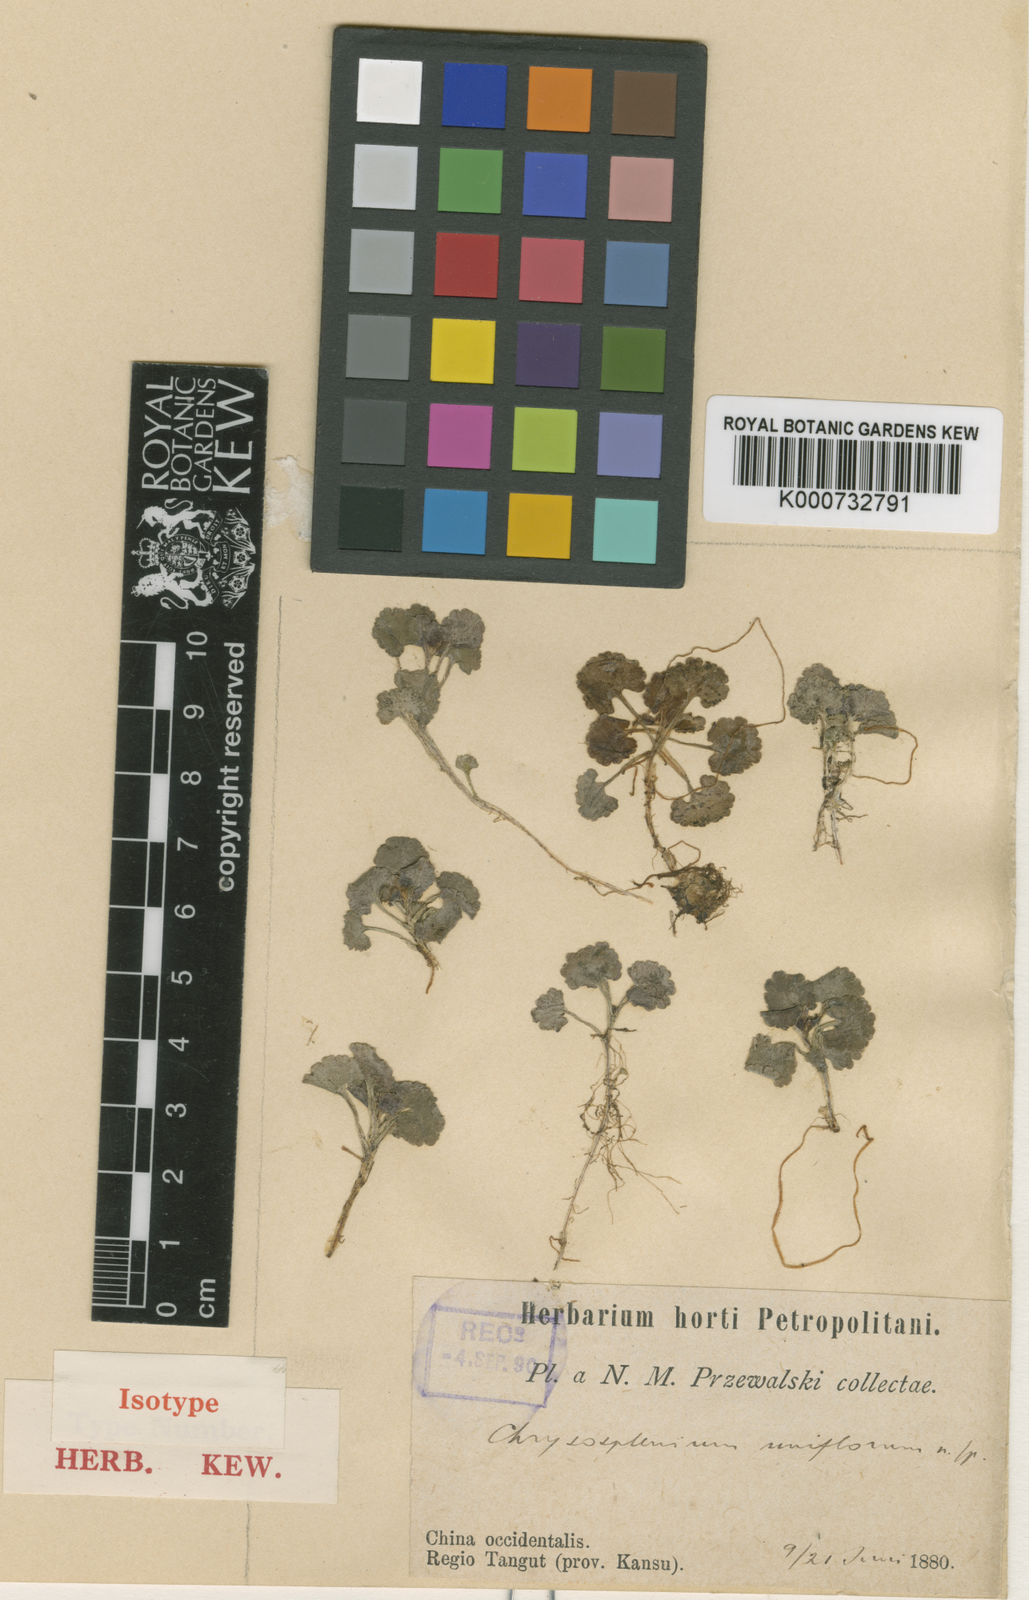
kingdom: Plantae
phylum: Tracheophyta
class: Magnoliopsida
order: Saxifragales
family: Saxifragaceae
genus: Chrysosplenium
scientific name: Chrysosplenium uniflorum
